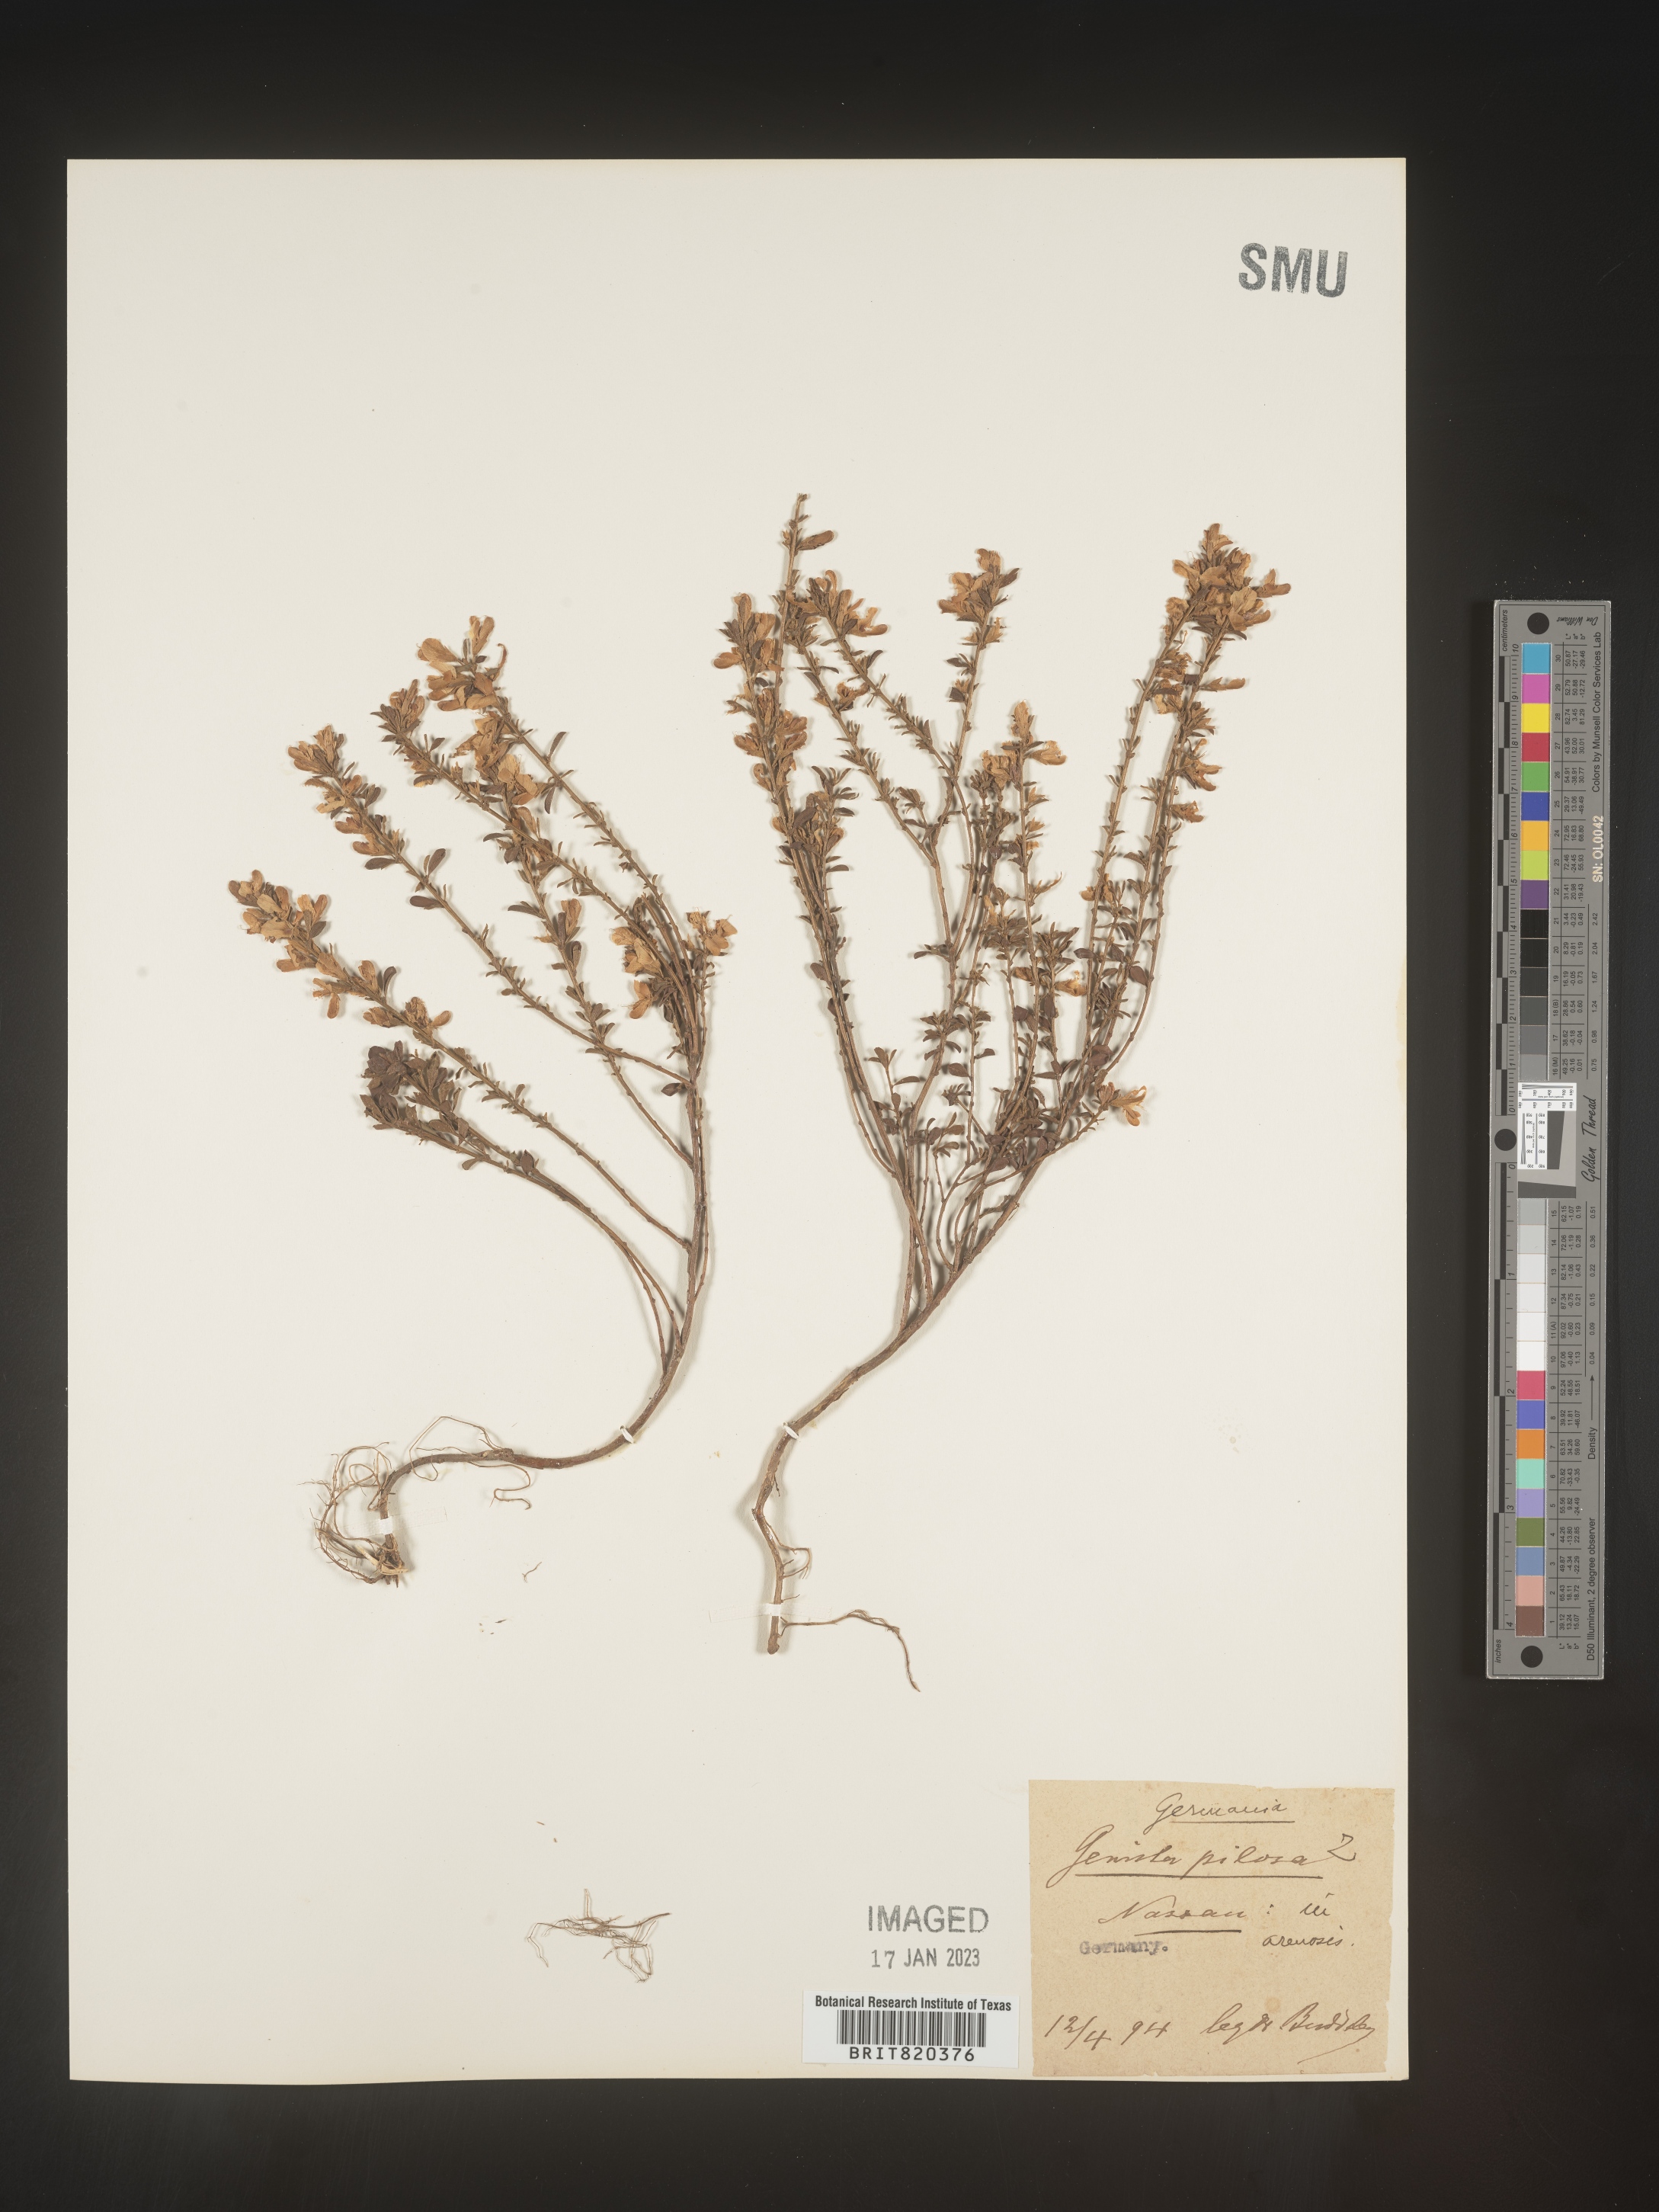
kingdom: Plantae
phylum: Tracheophyta
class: Magnoliopsida
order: Fabales
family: Fabaceae
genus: Genista
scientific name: Genista
